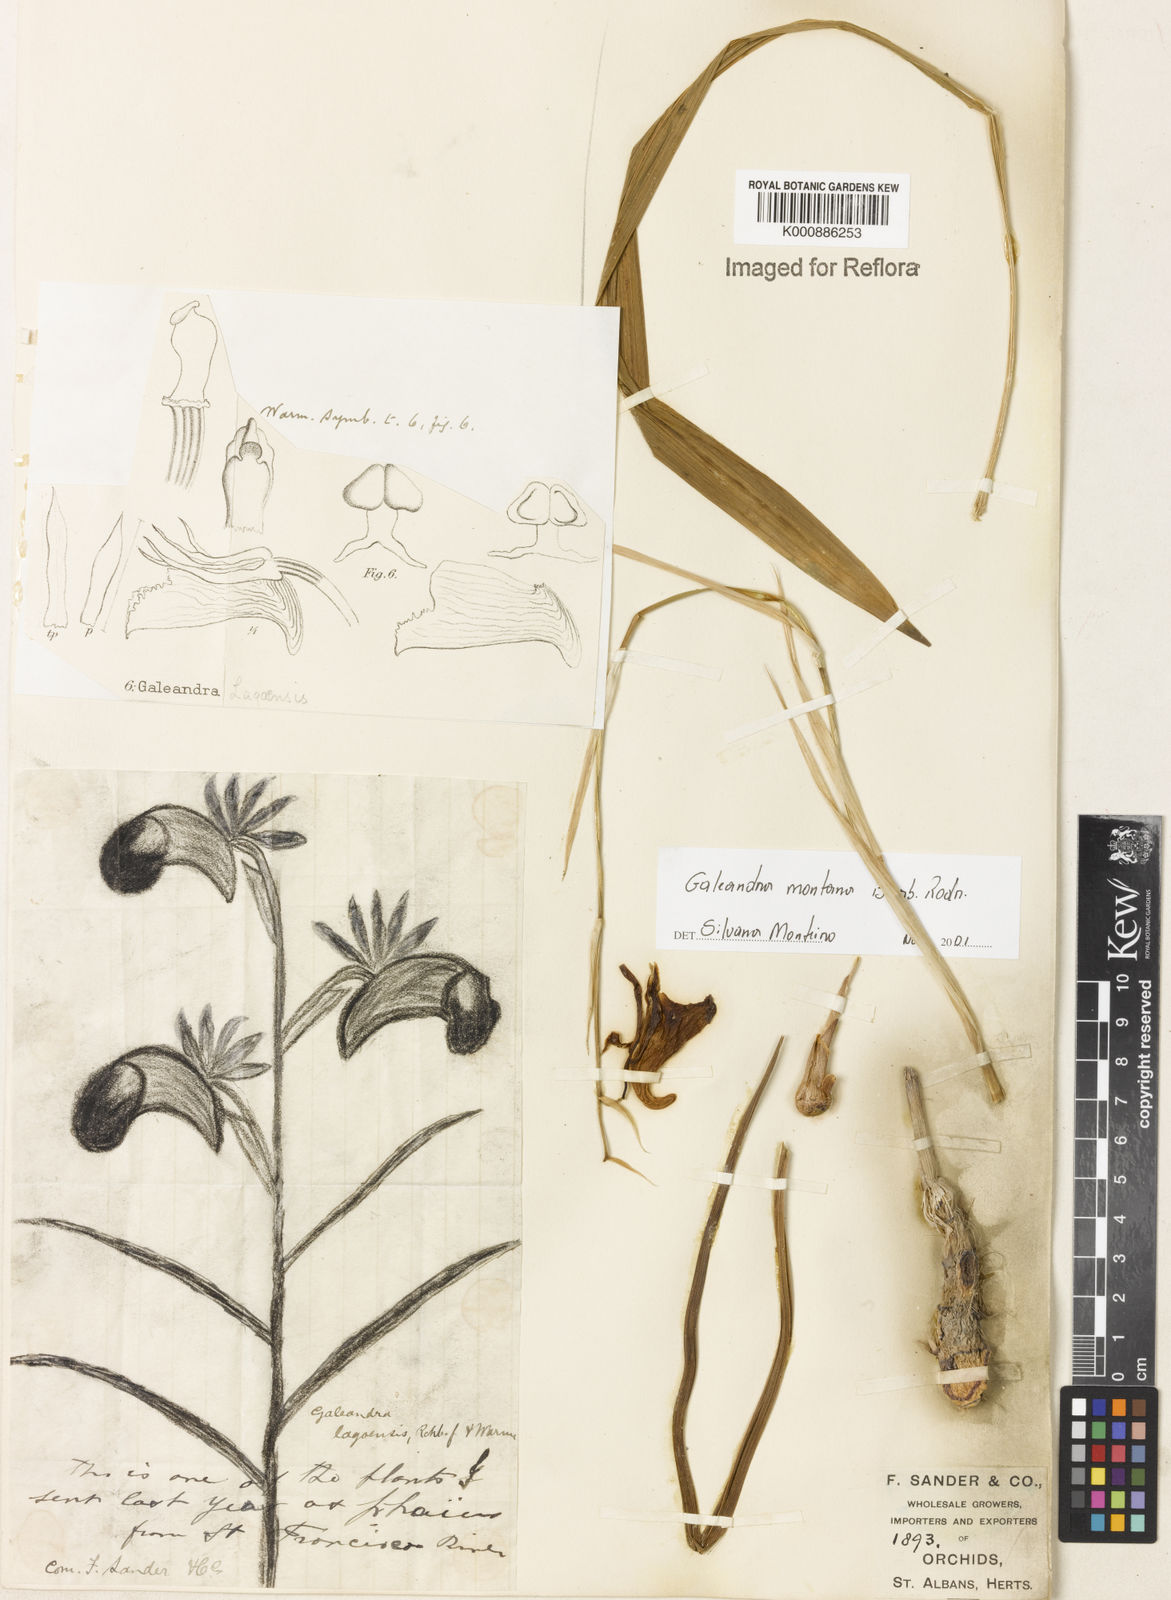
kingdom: Plantae
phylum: Tracheophyta
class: Liliopsida
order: Asparagales
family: Orchidaceae
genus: Galeandra
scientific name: Galeandra montana
